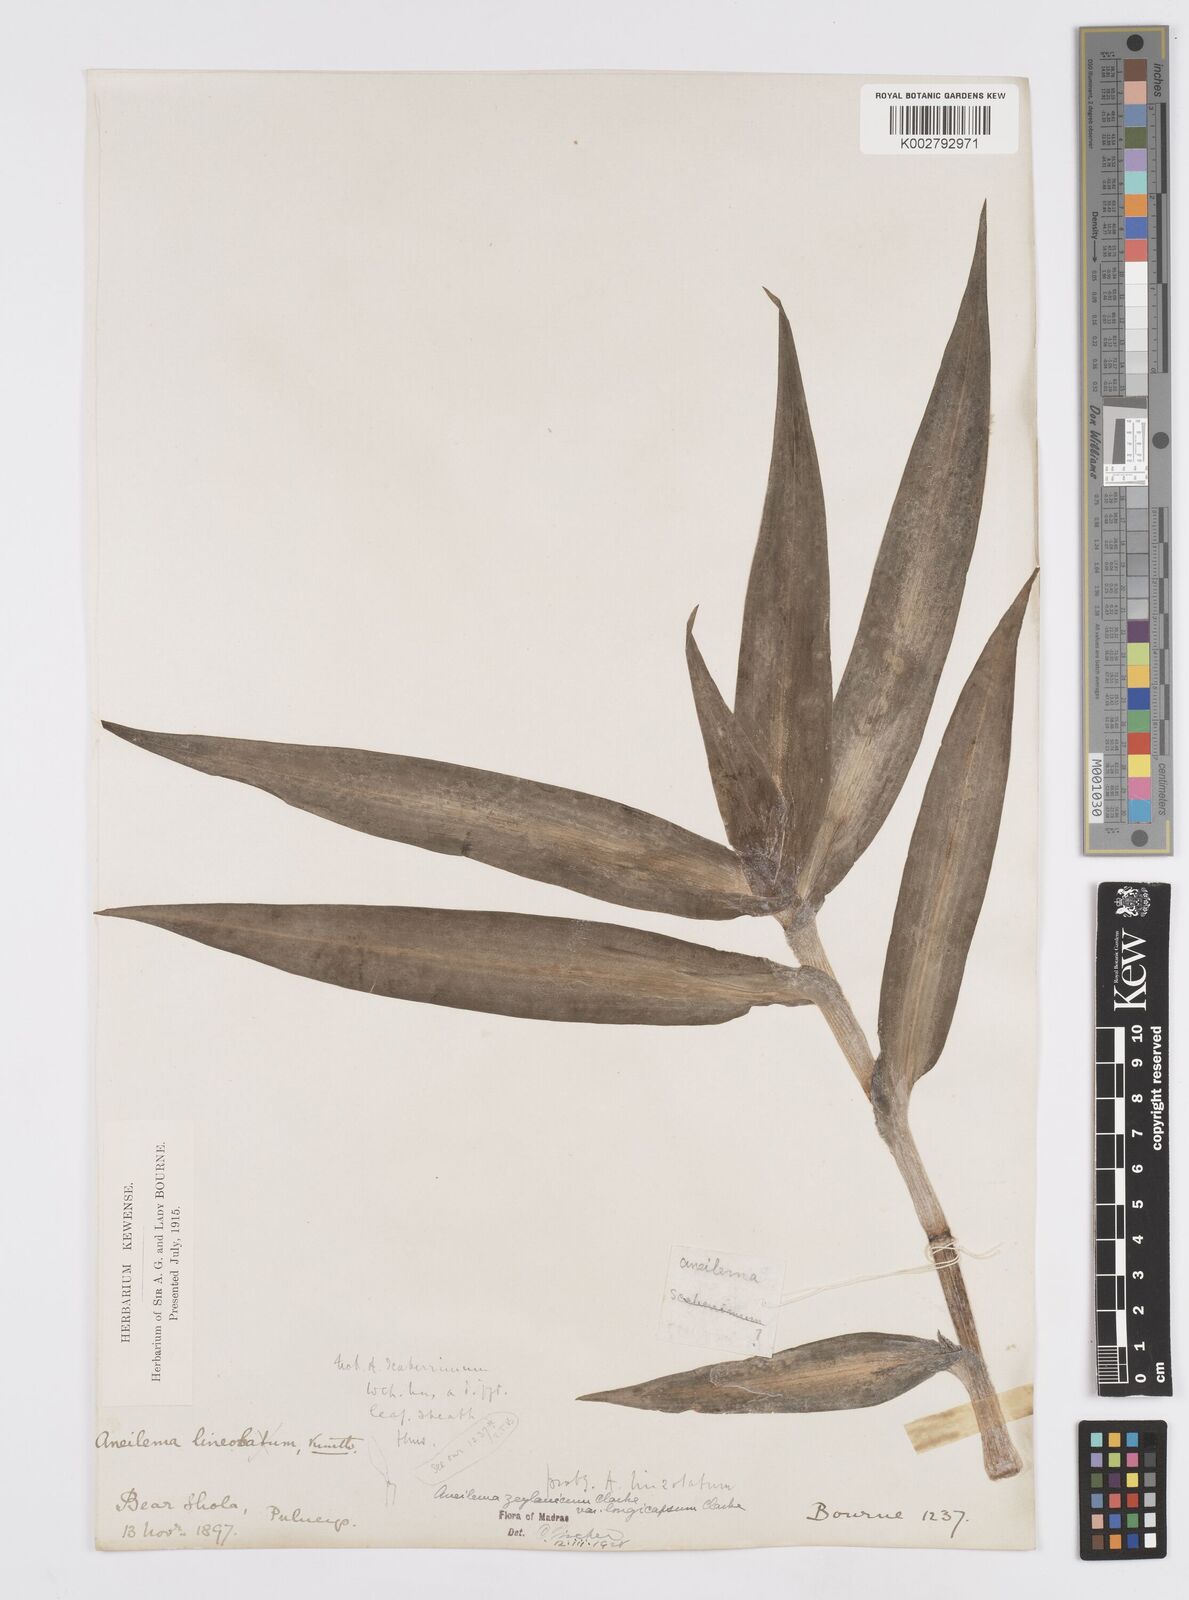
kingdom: Plantae
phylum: Tracheophyta
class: Liliopsida
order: Commelinales
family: Commelinaceae
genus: Murdannia
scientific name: Murdannia zeylanica
